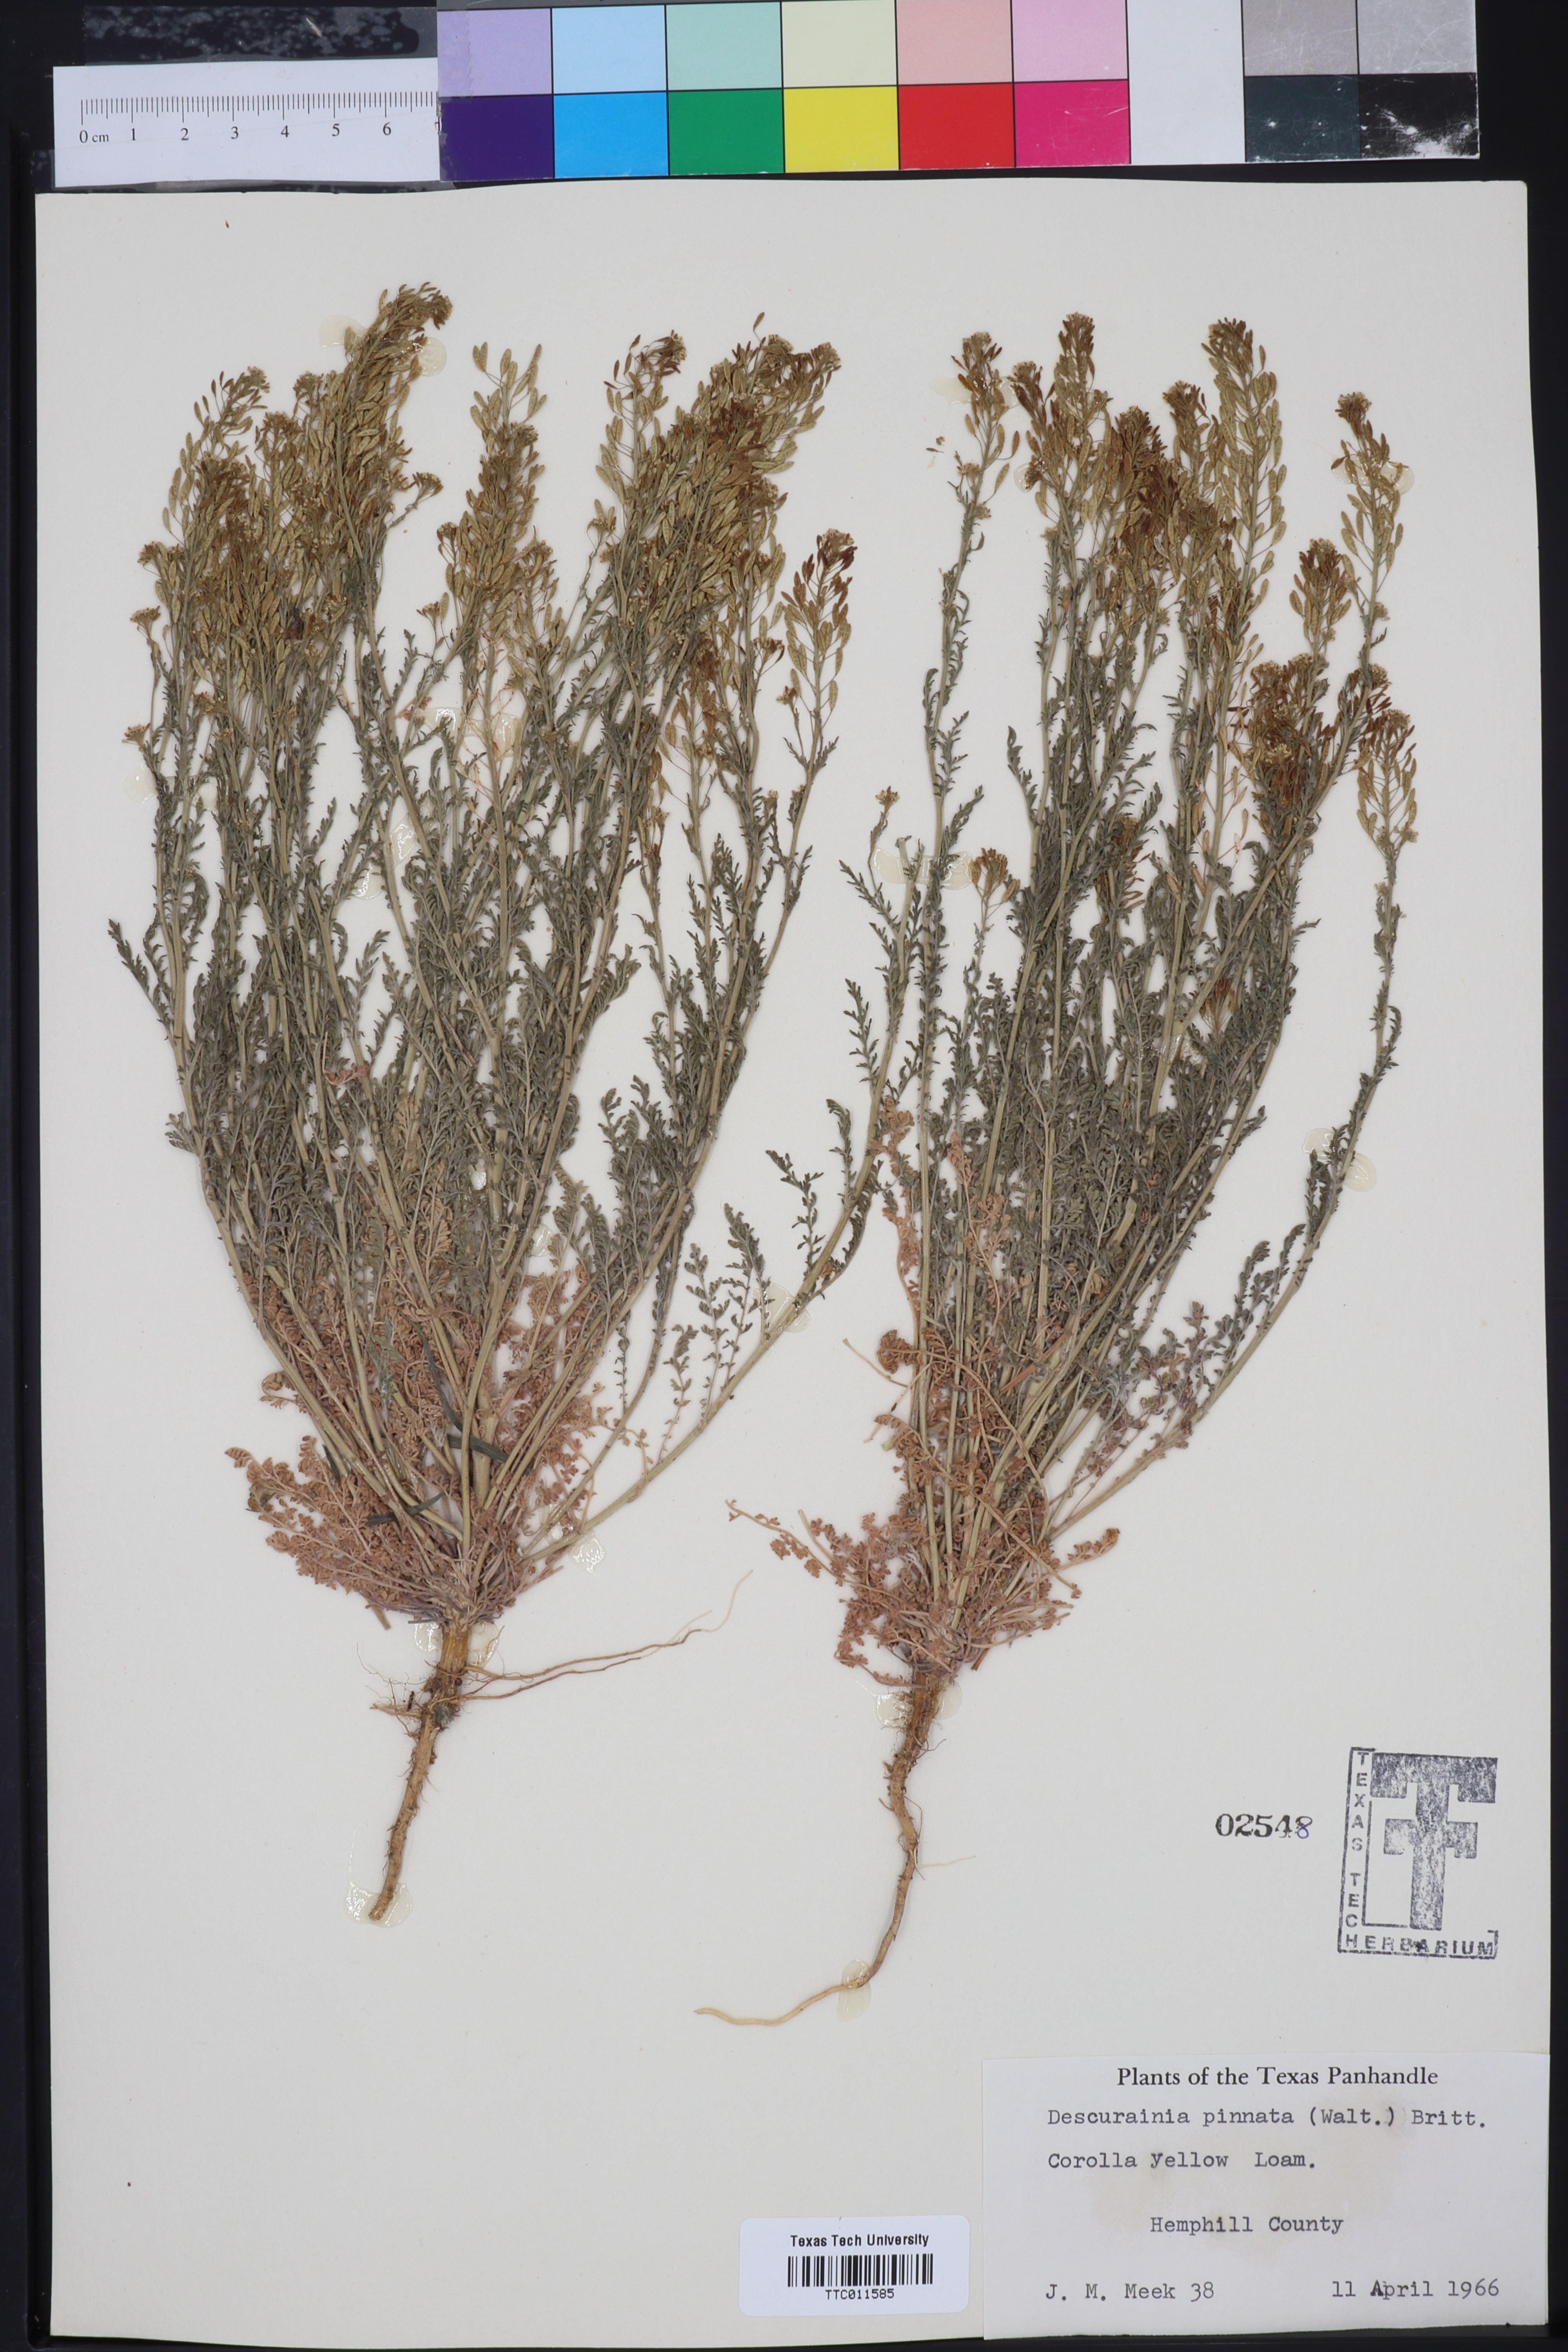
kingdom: Plantae
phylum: Tracheophyta
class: Magnoliopsida
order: Brassicales
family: Brassicaceae
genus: Descurainia
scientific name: Descurainia pinnata
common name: Western tansy mustard
